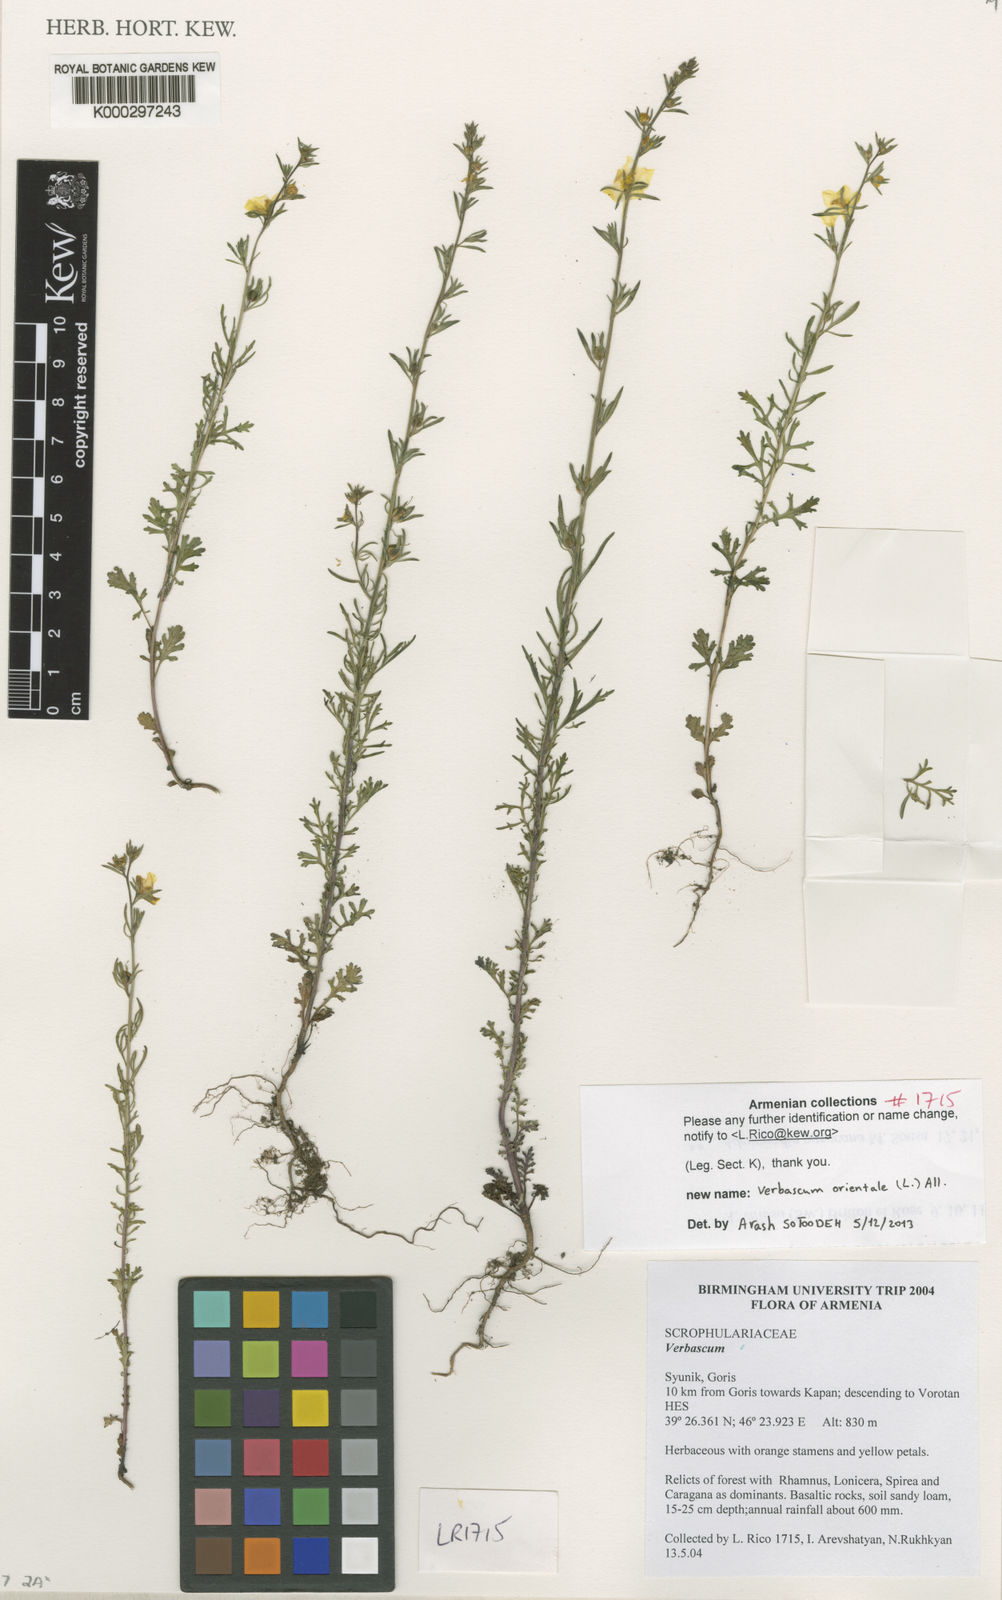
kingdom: Plantae
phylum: Tracheophyta
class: Magnoliopsida
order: Lamiales
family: Scrophulariaceae
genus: Verbascum
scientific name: Verbascum
